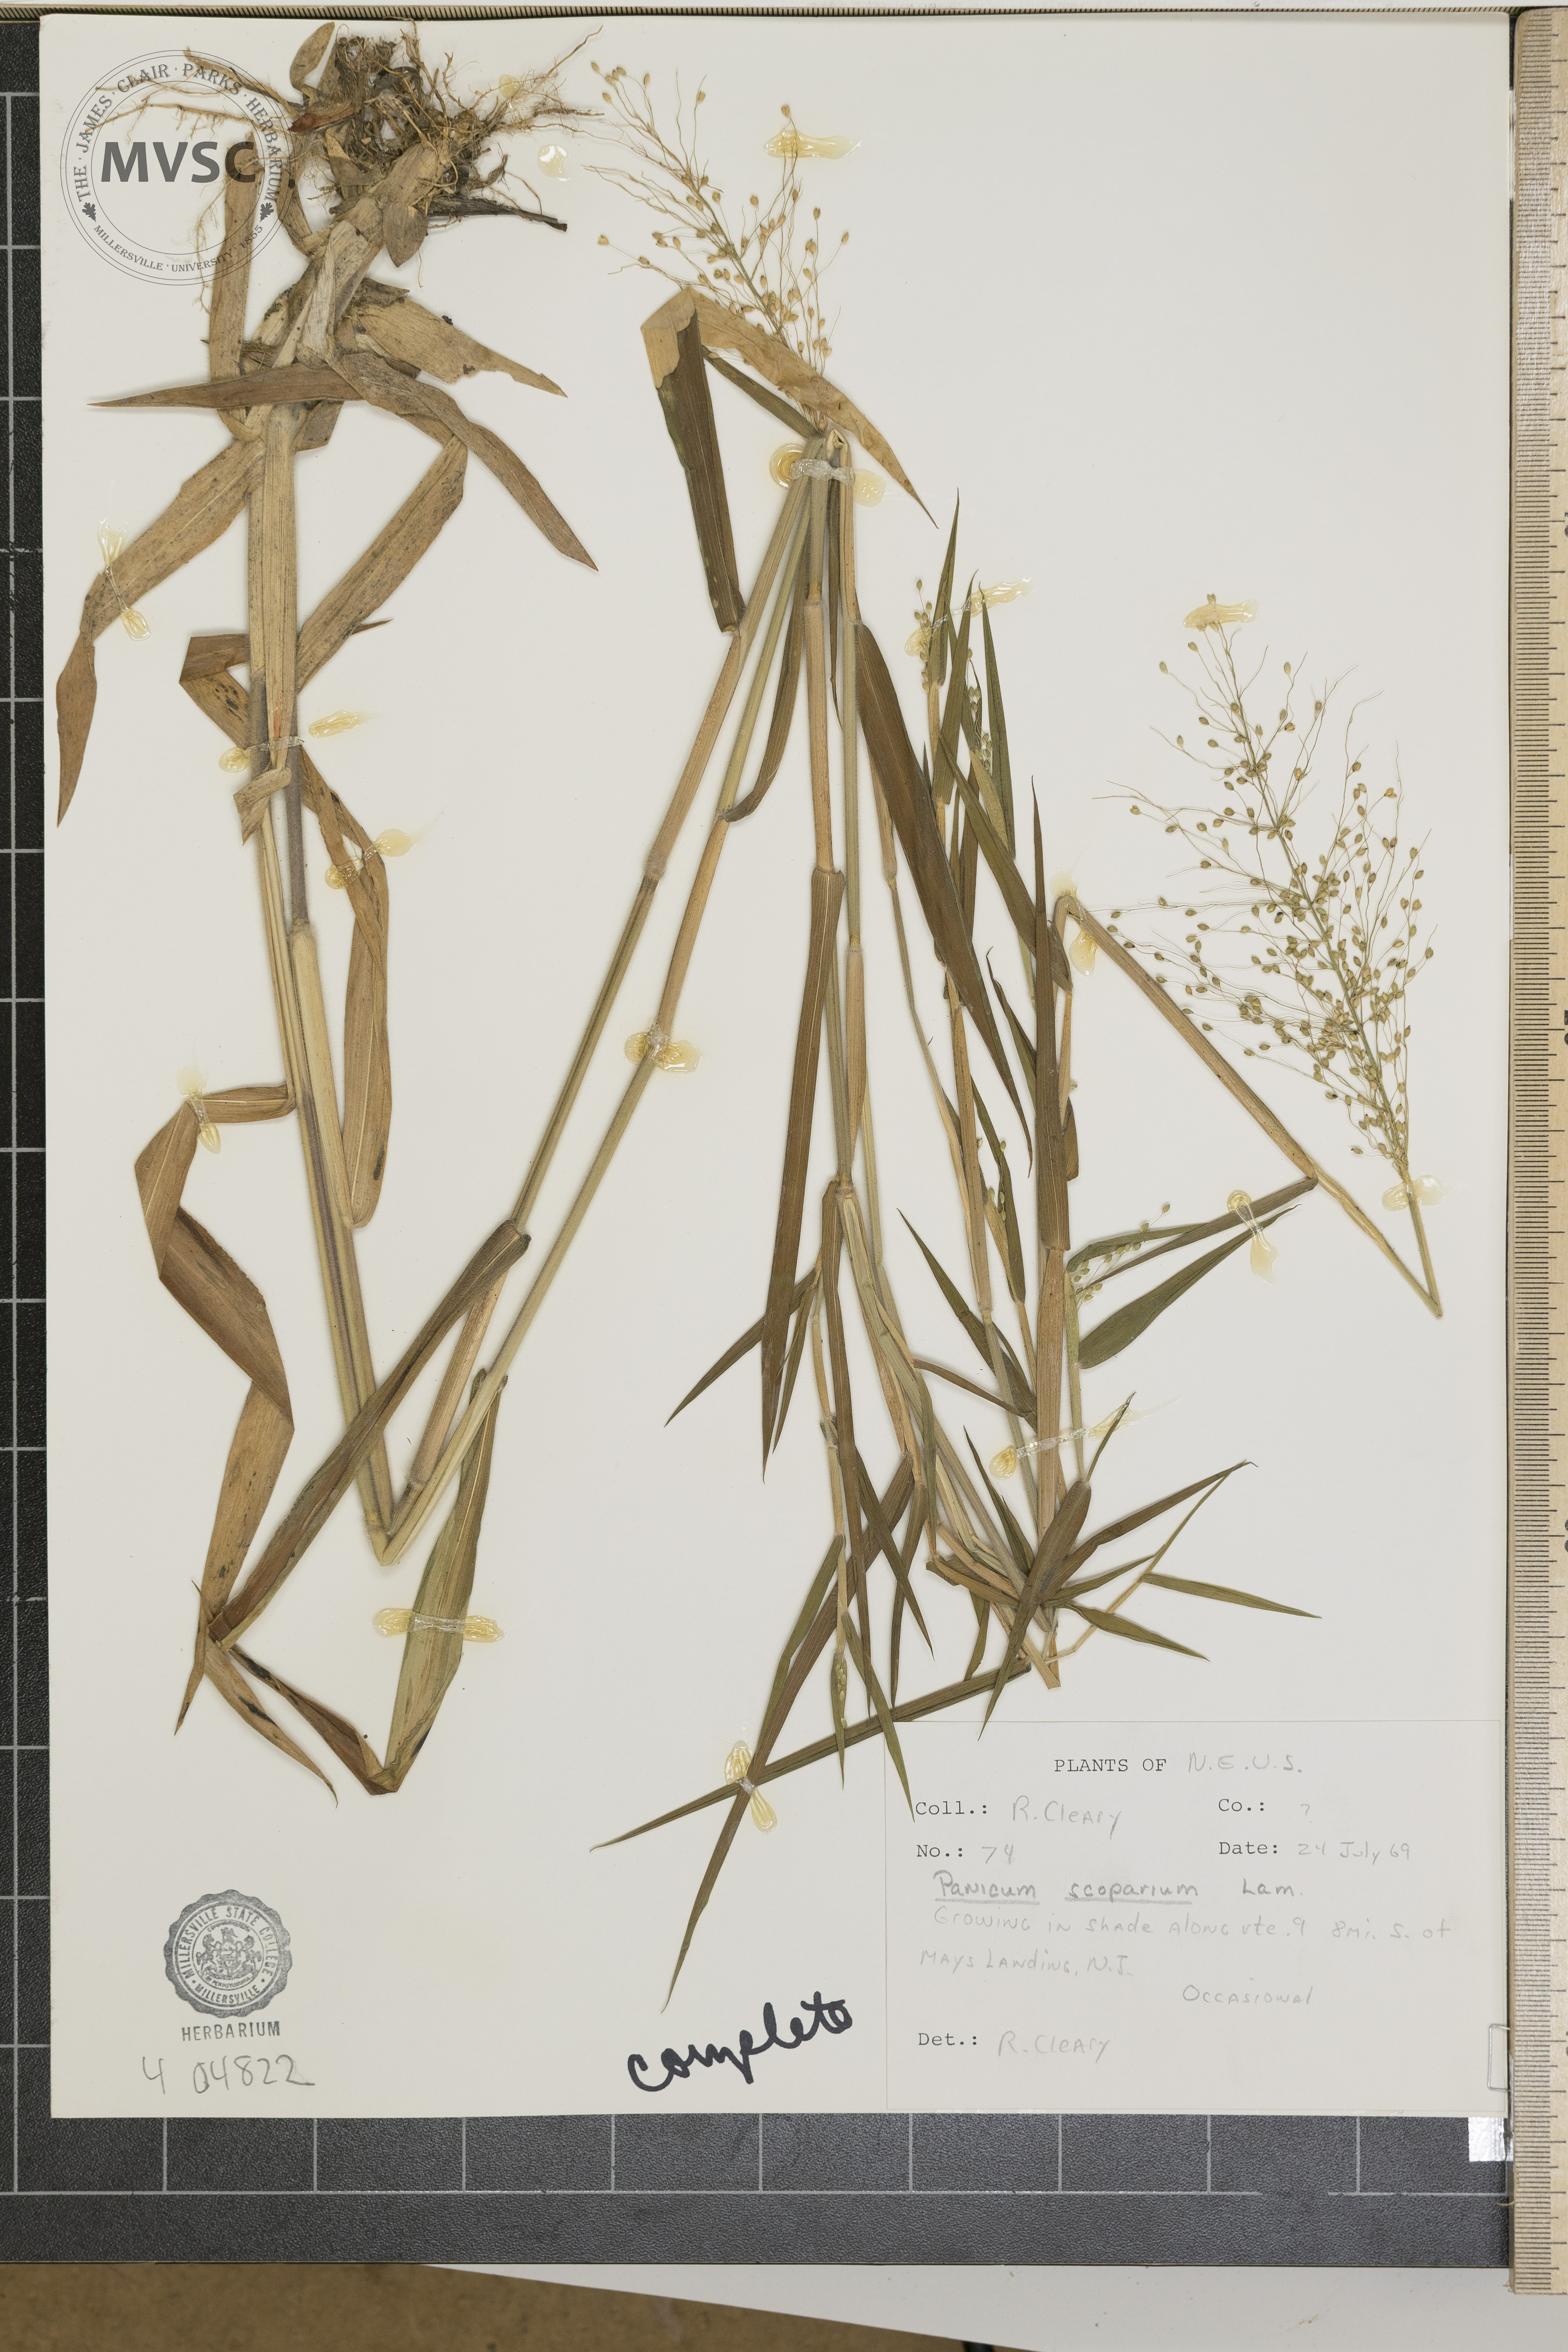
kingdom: Plantae
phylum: Tracheophyta
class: Liliopsida
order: Poales
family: Poaceae
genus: Panicum
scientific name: Panicum scoparium
